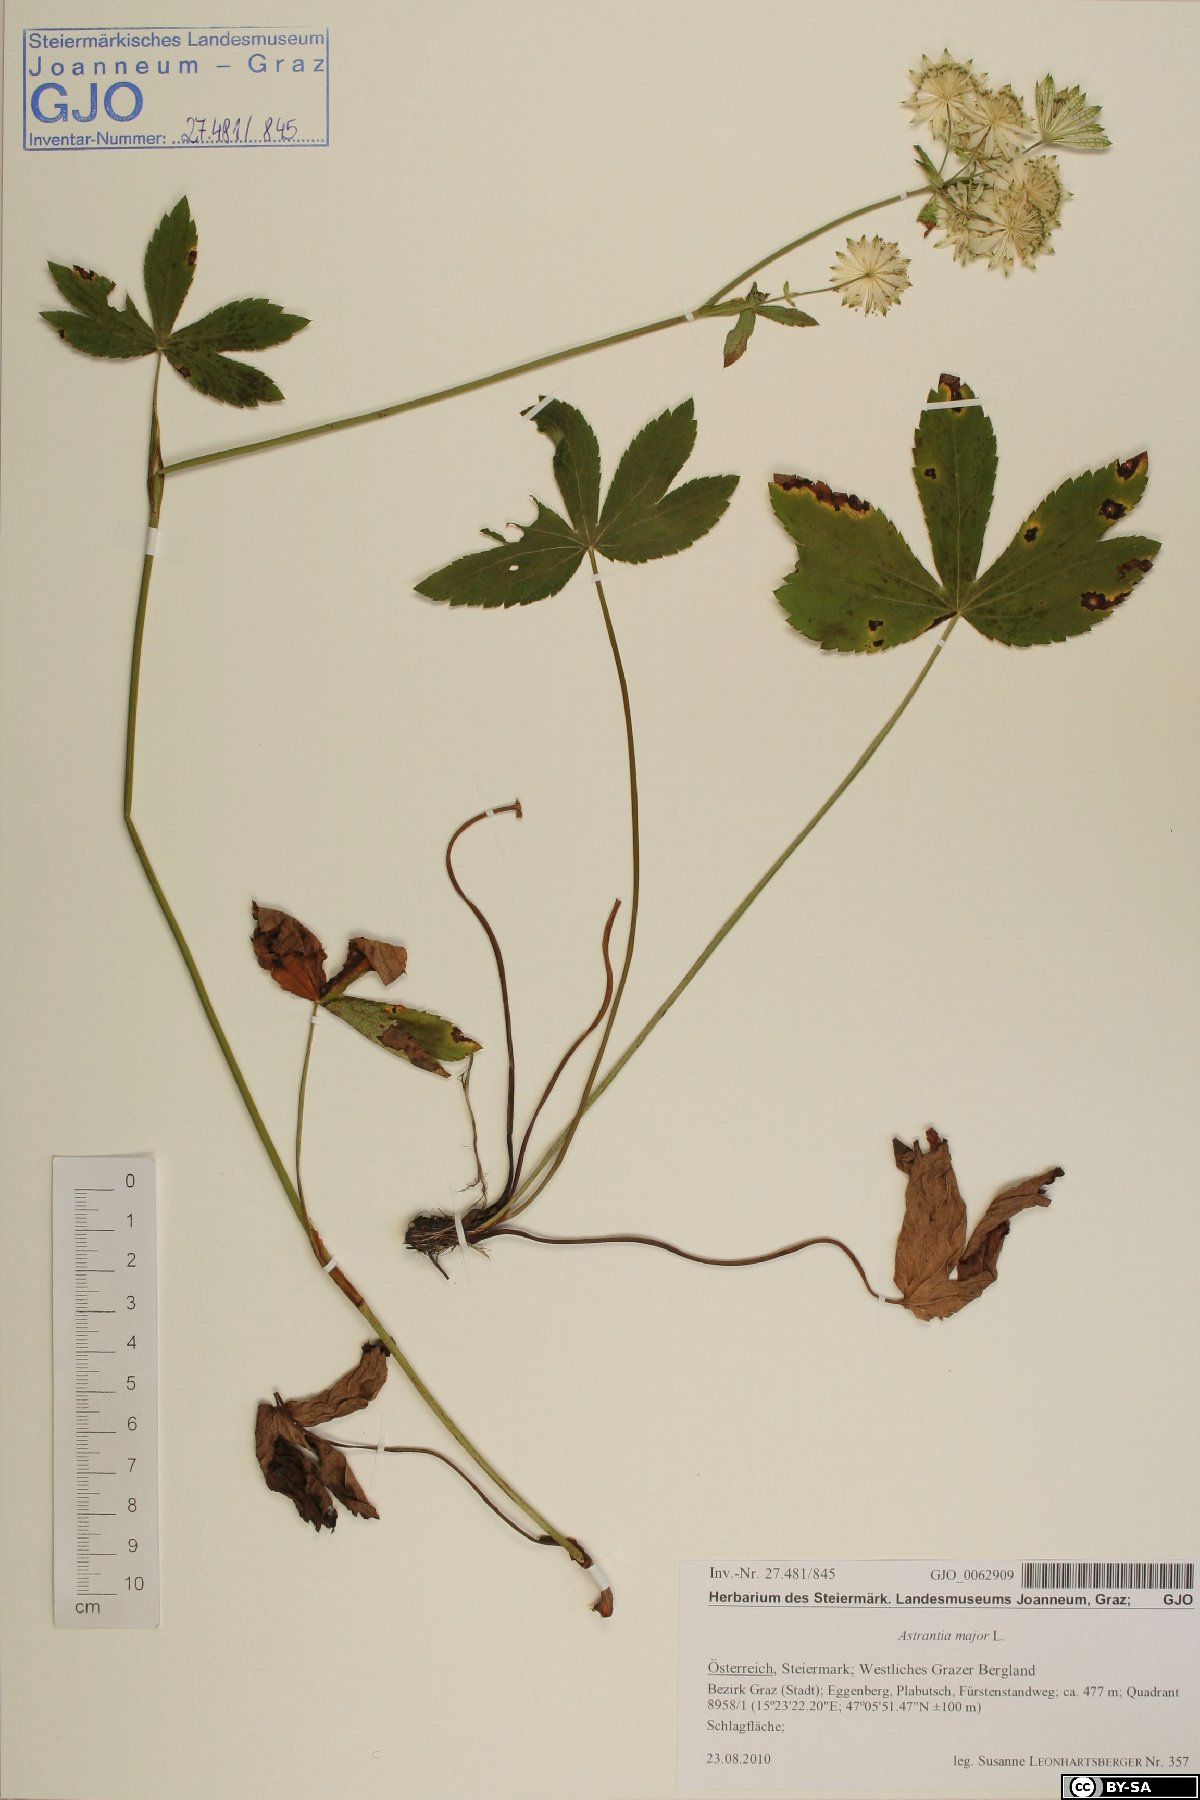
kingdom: Plantae
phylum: Tracheophyta
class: Magnoliopsida
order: Apiales
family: Apiaceae
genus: Astrantia
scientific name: Astrantia major
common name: Greater masterwort
